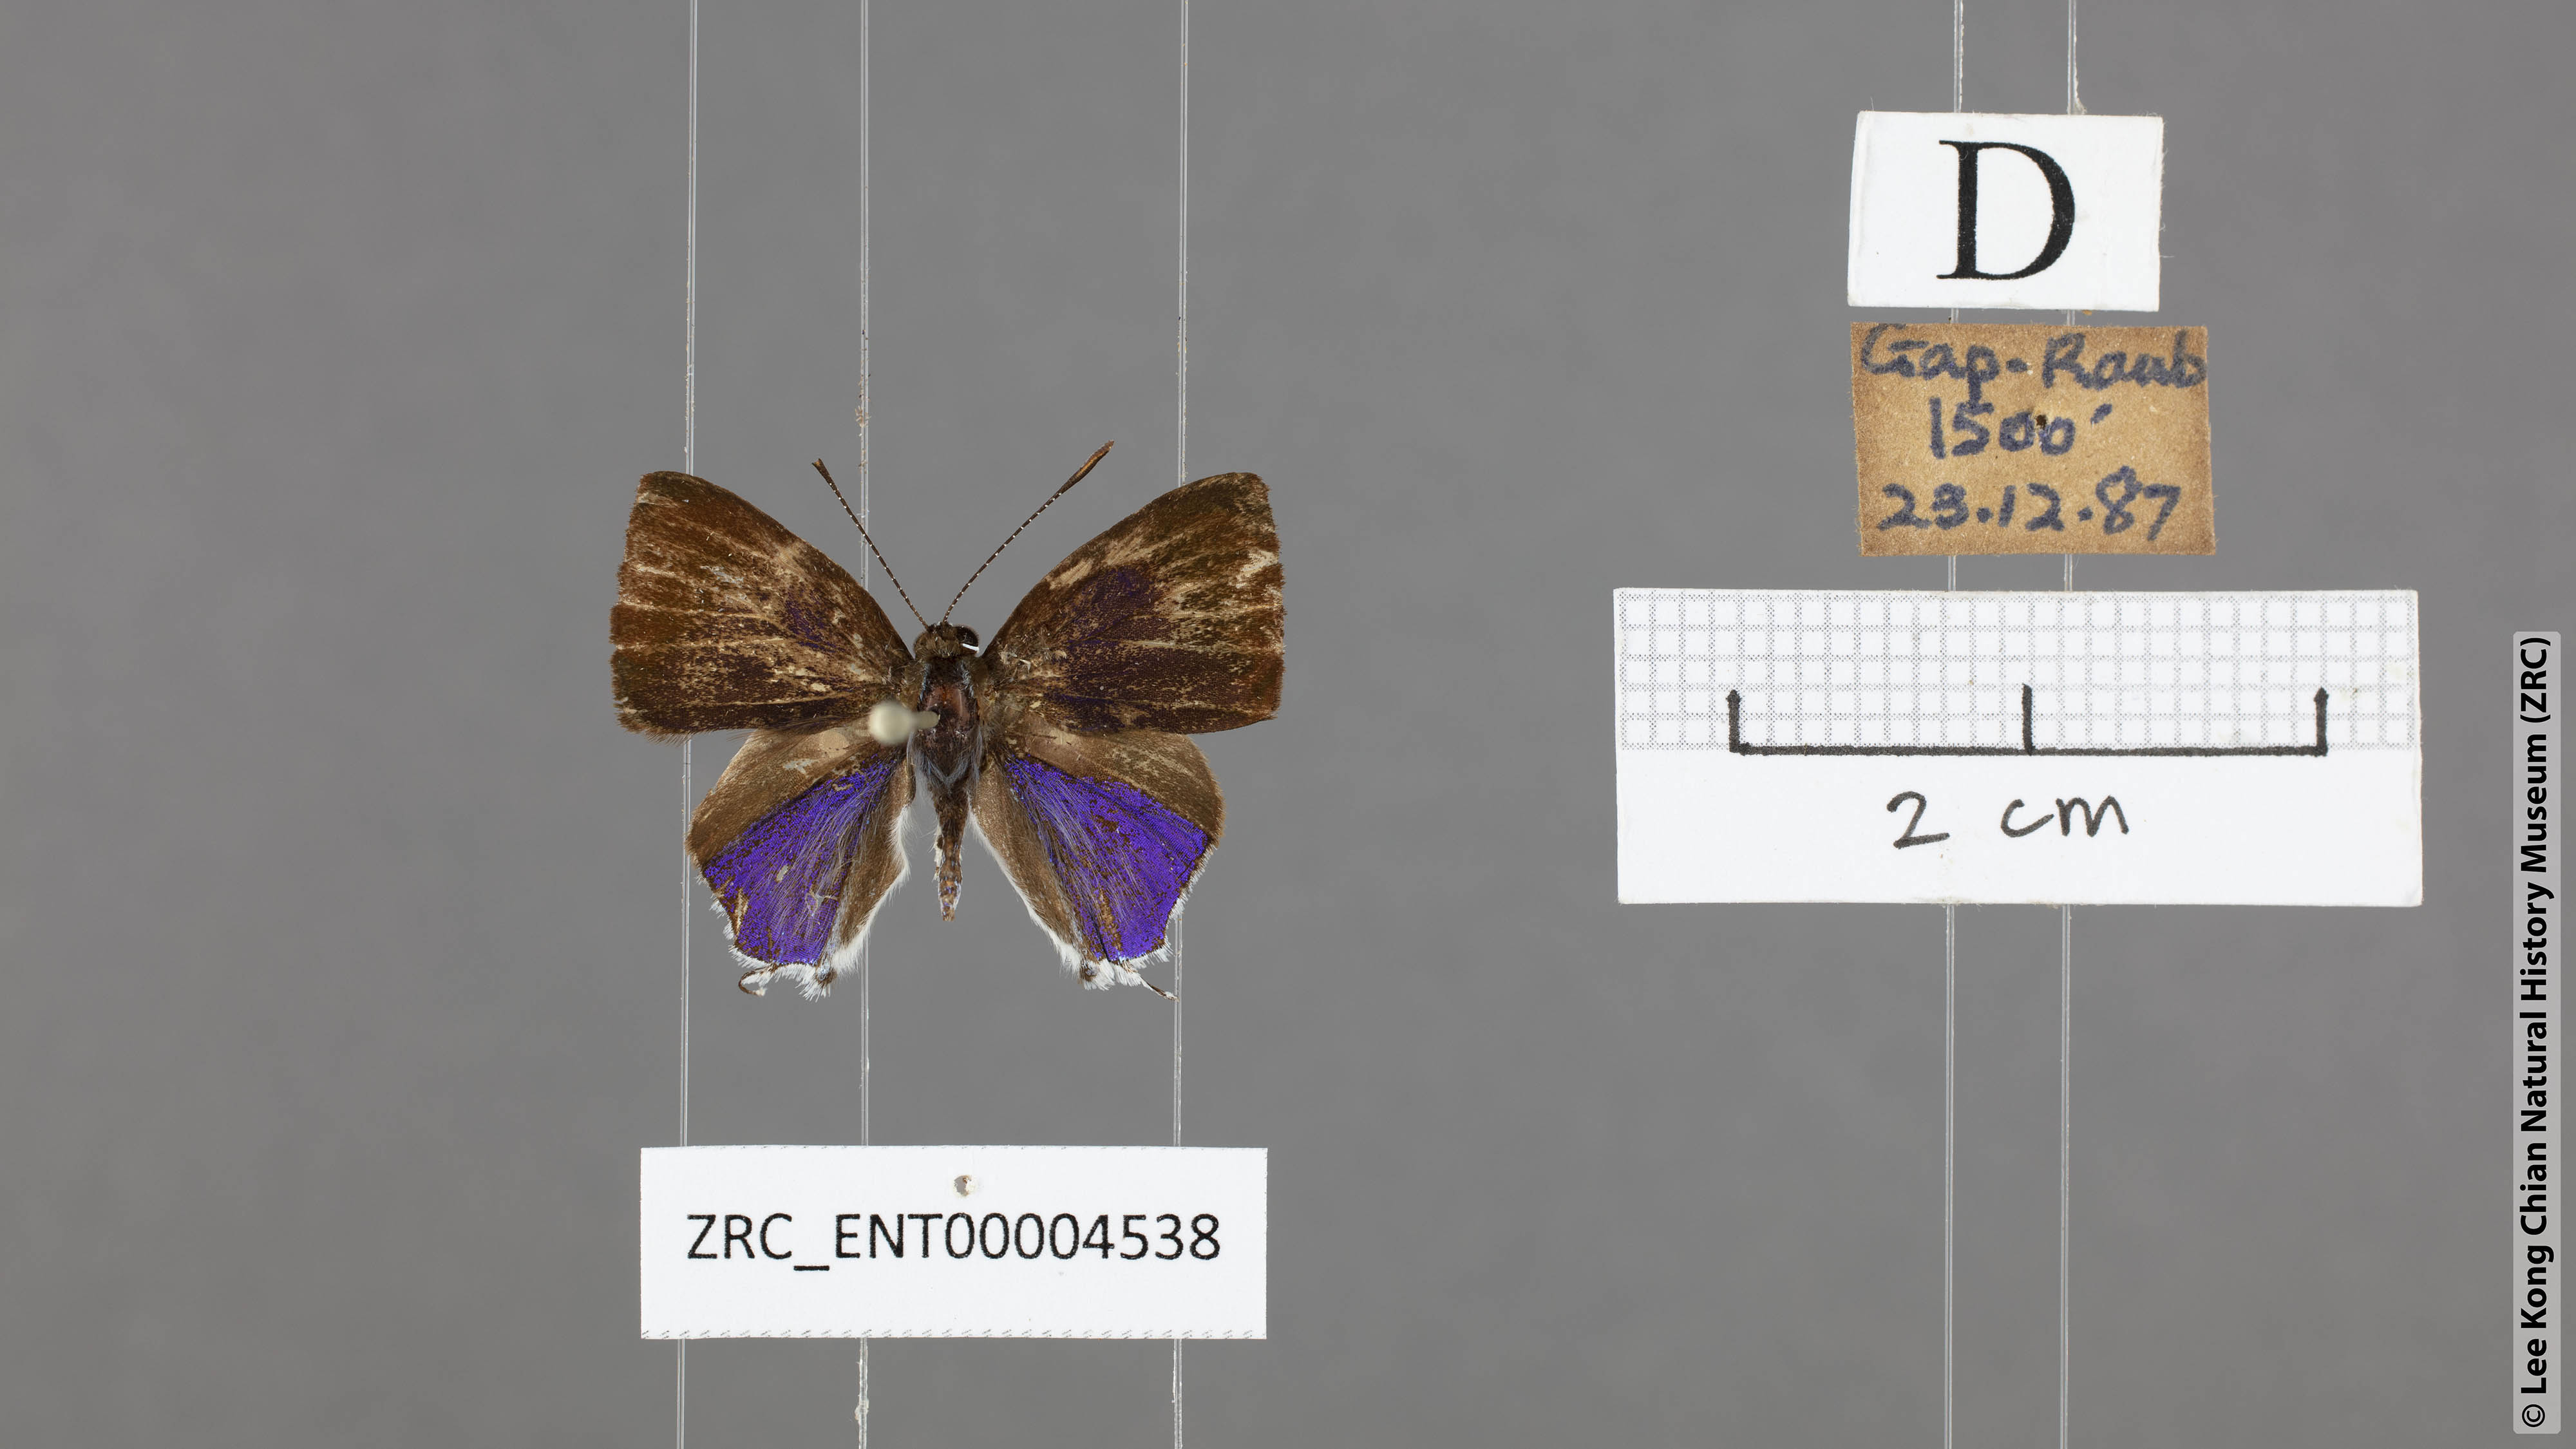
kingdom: Animalia
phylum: Arthropoda
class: Insecta
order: Lepidoptera
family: Lycaenidae
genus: Sinthusa
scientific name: Sinthusa malika
